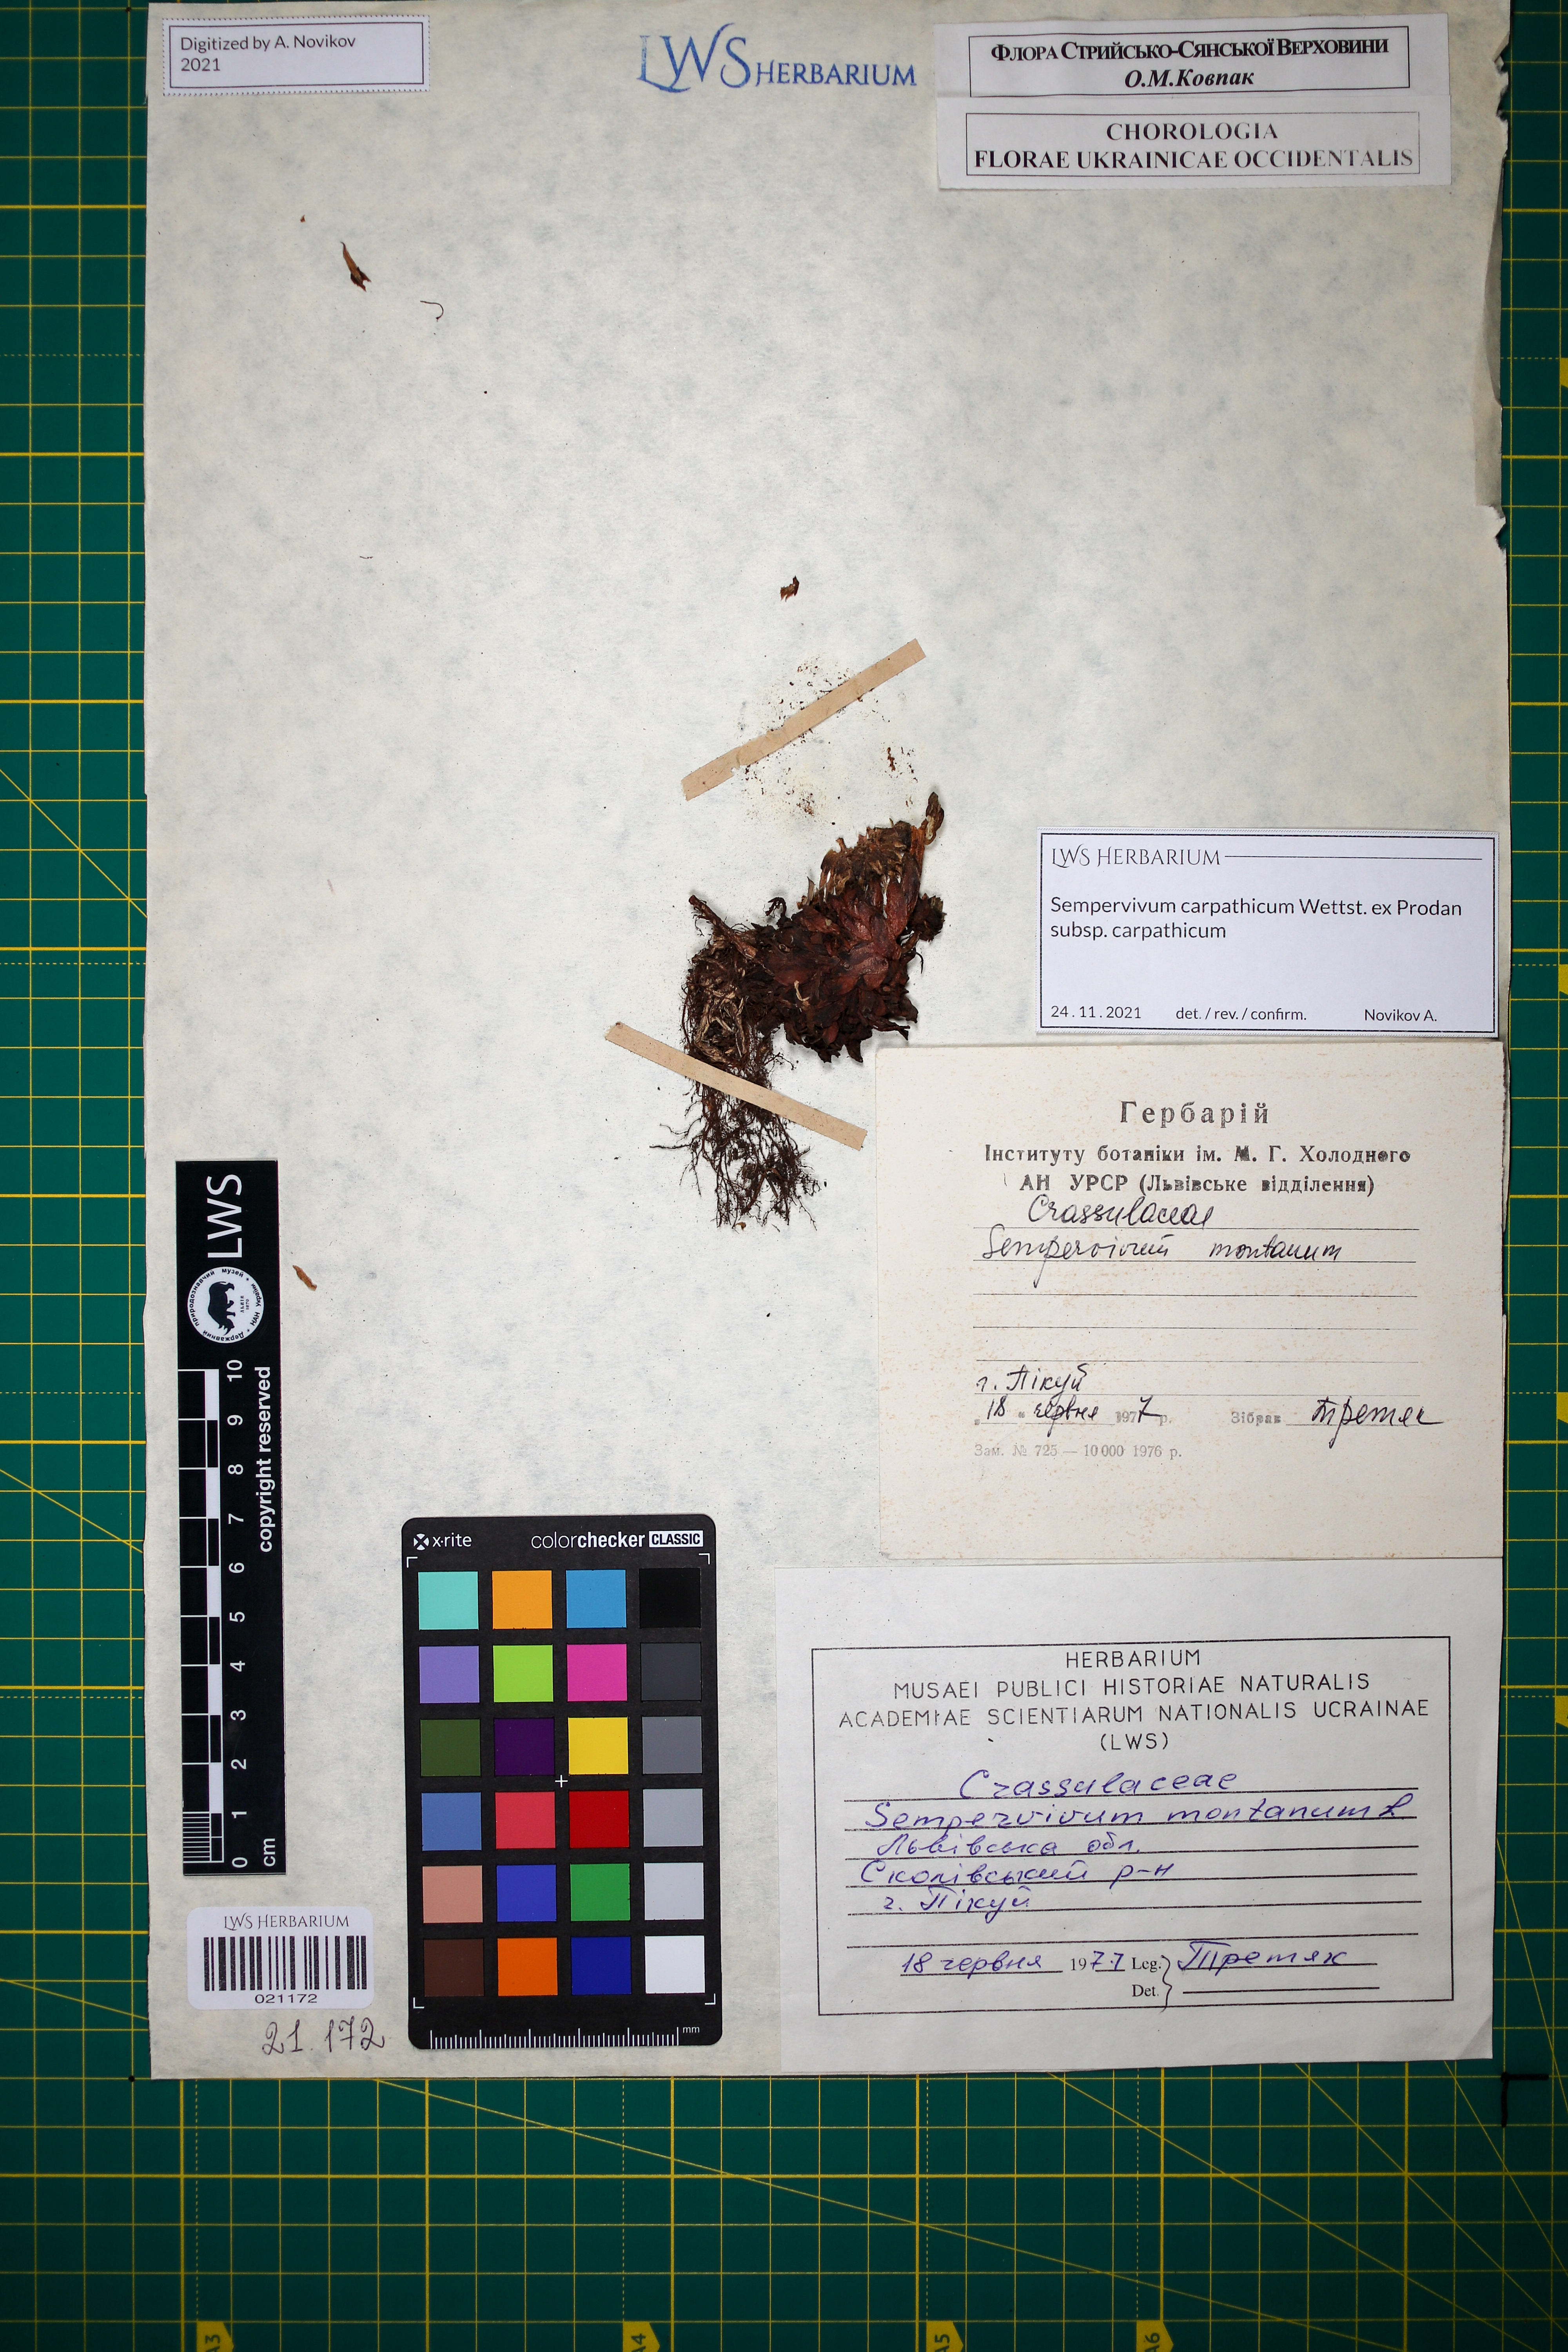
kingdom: Plantae
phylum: Tracheophyta
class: Magnoliopsida
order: Saxifragales
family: Crassulaceae
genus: Sempervivum
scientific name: Sempervivum montanum
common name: Mountain house-leek
